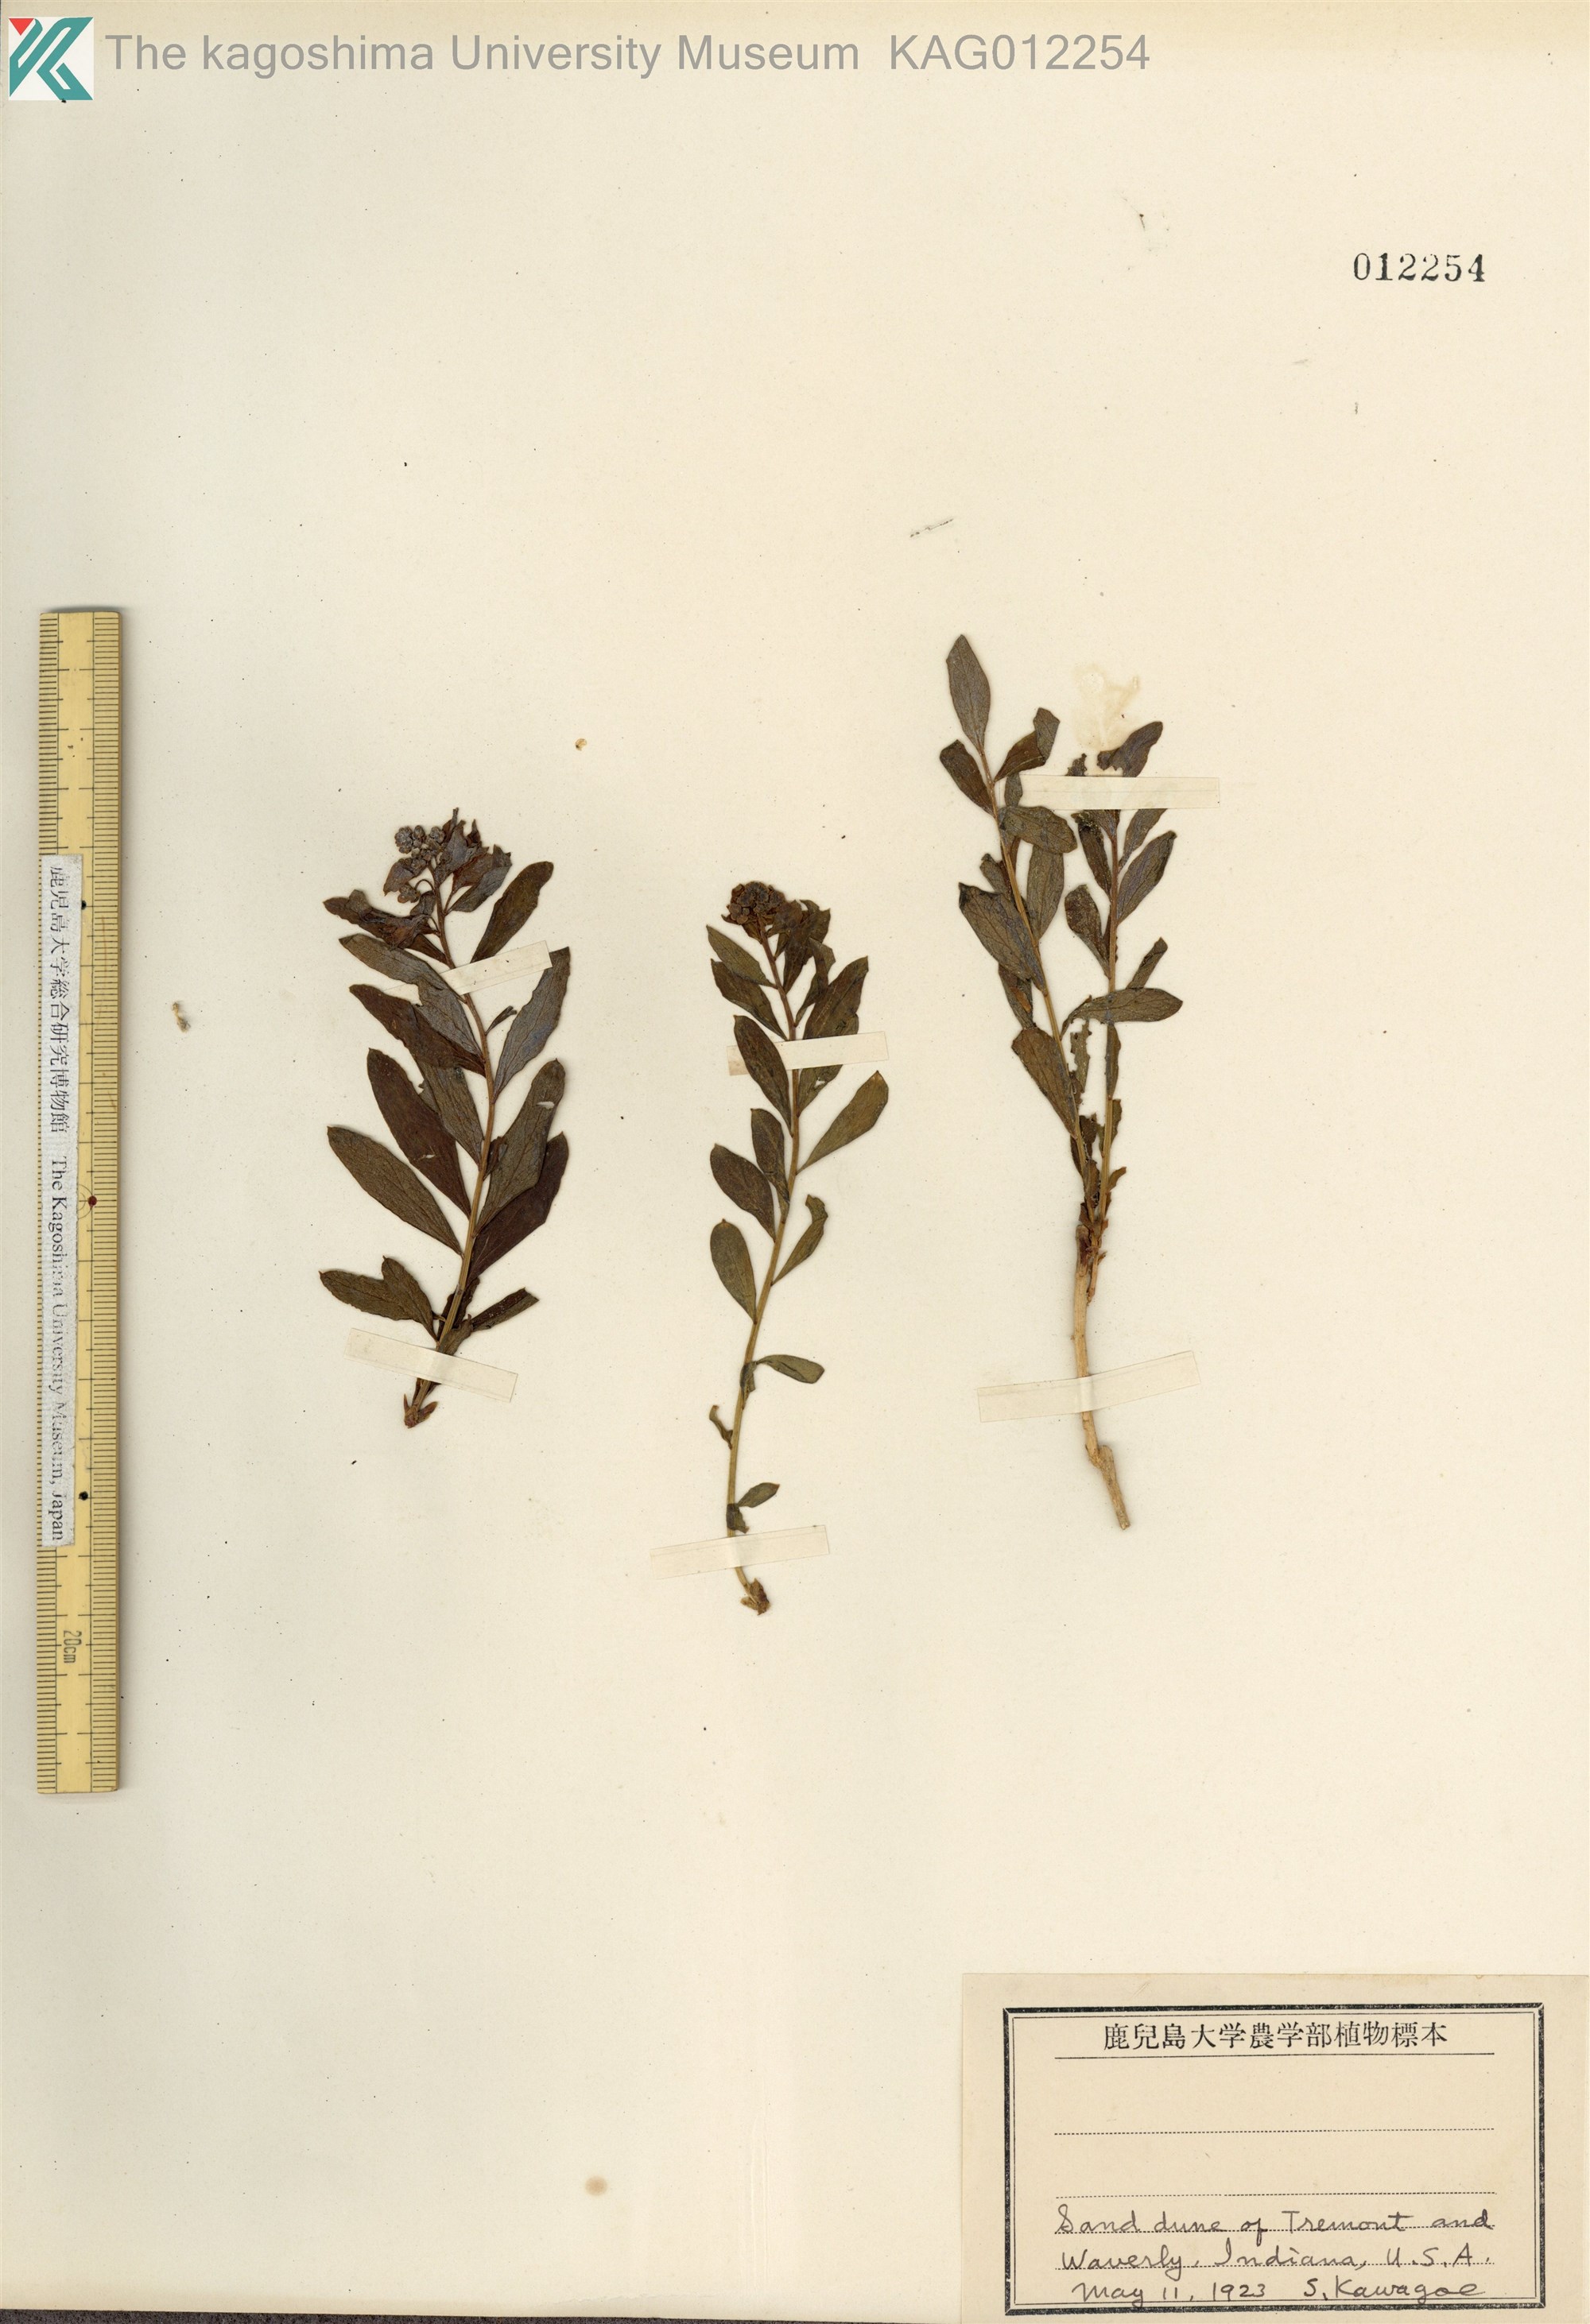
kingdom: Plantae
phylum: Tracheophyta
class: Magnoliopsida
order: Malpighiales
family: Euphorbiaceae
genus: Euphorbia
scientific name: Euphorbia
